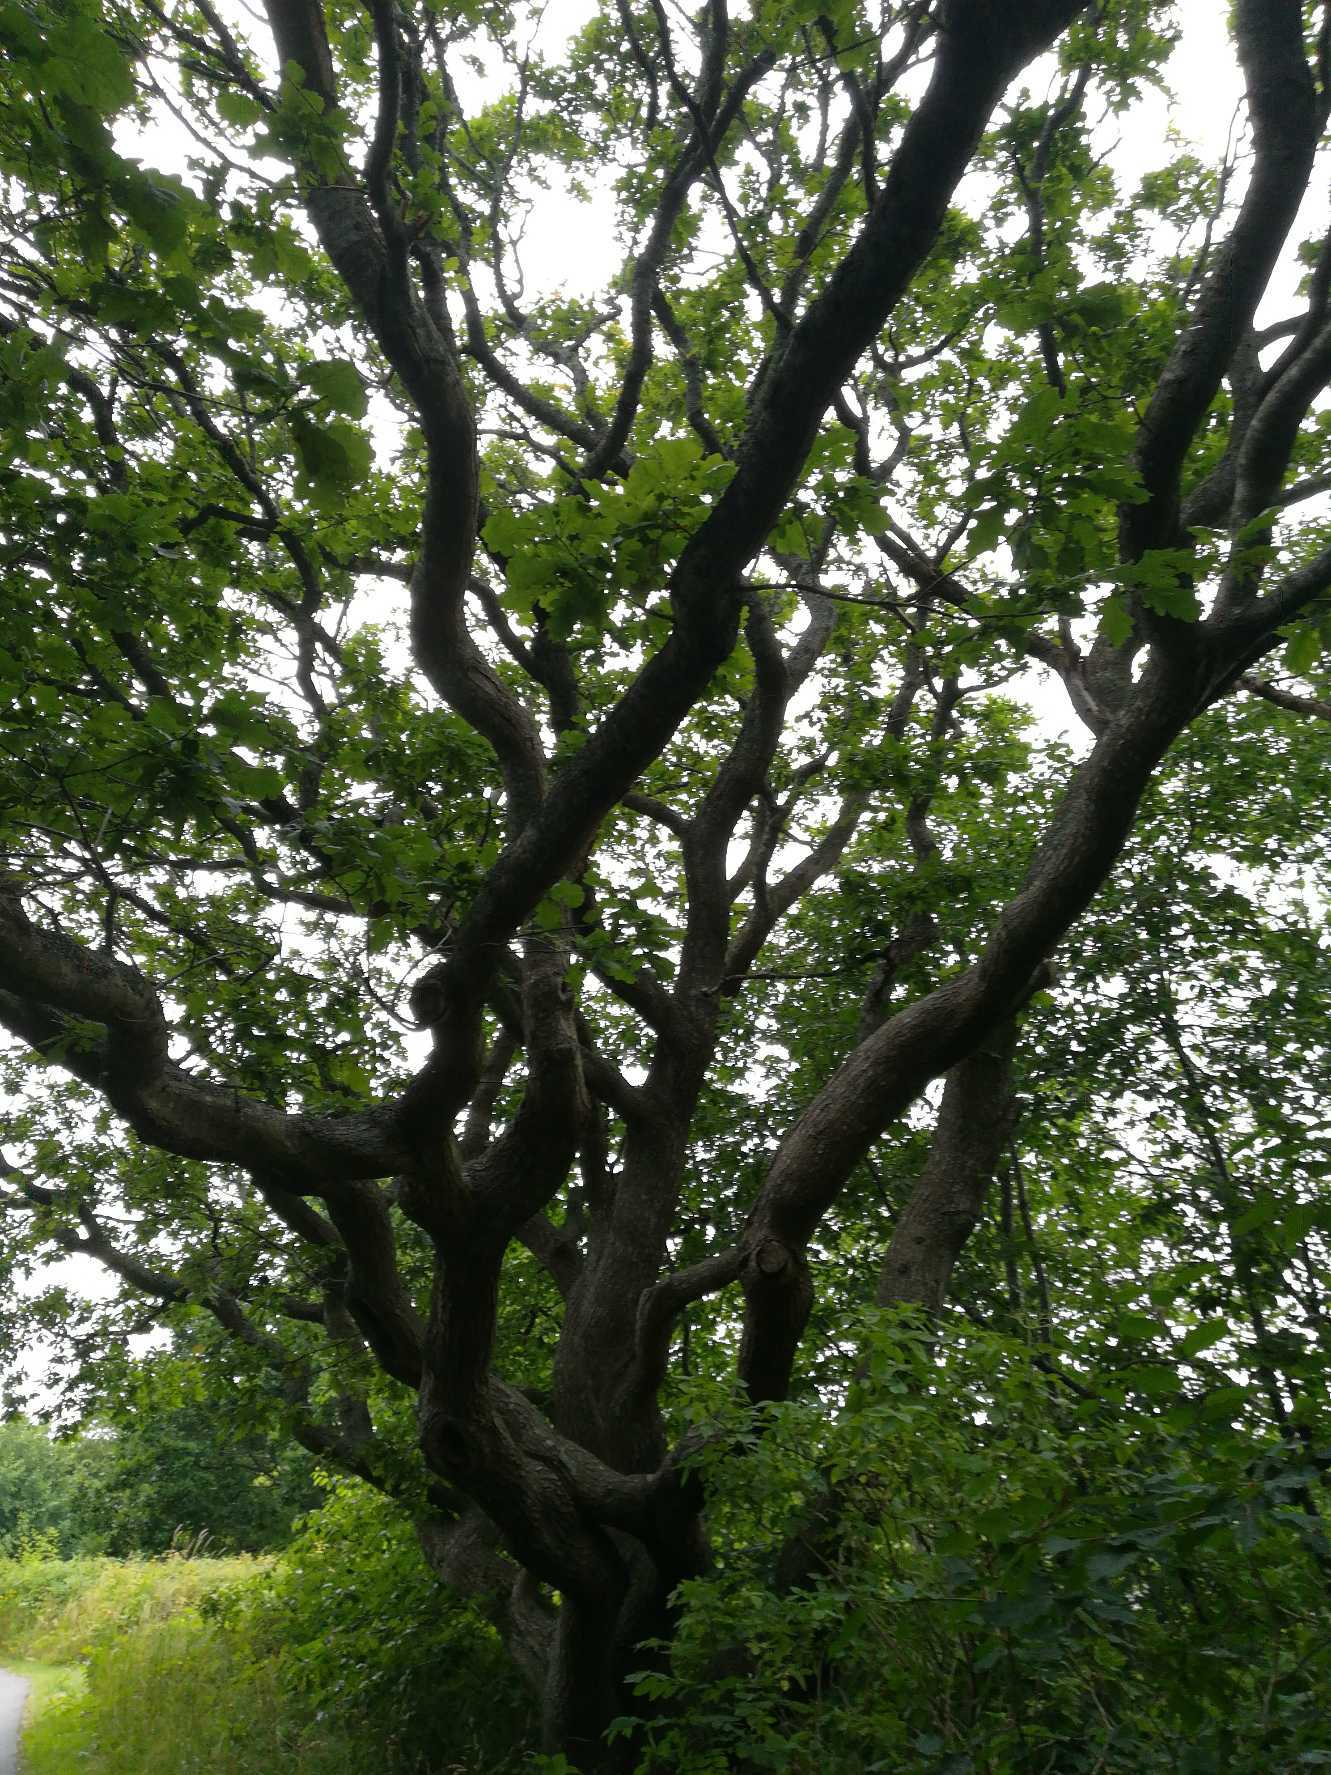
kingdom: Plantae
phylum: Tracheophyta
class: Magnoliopsida
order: Fagales
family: Fagaceae
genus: Quercus
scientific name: Quercus
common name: Egeslægten
